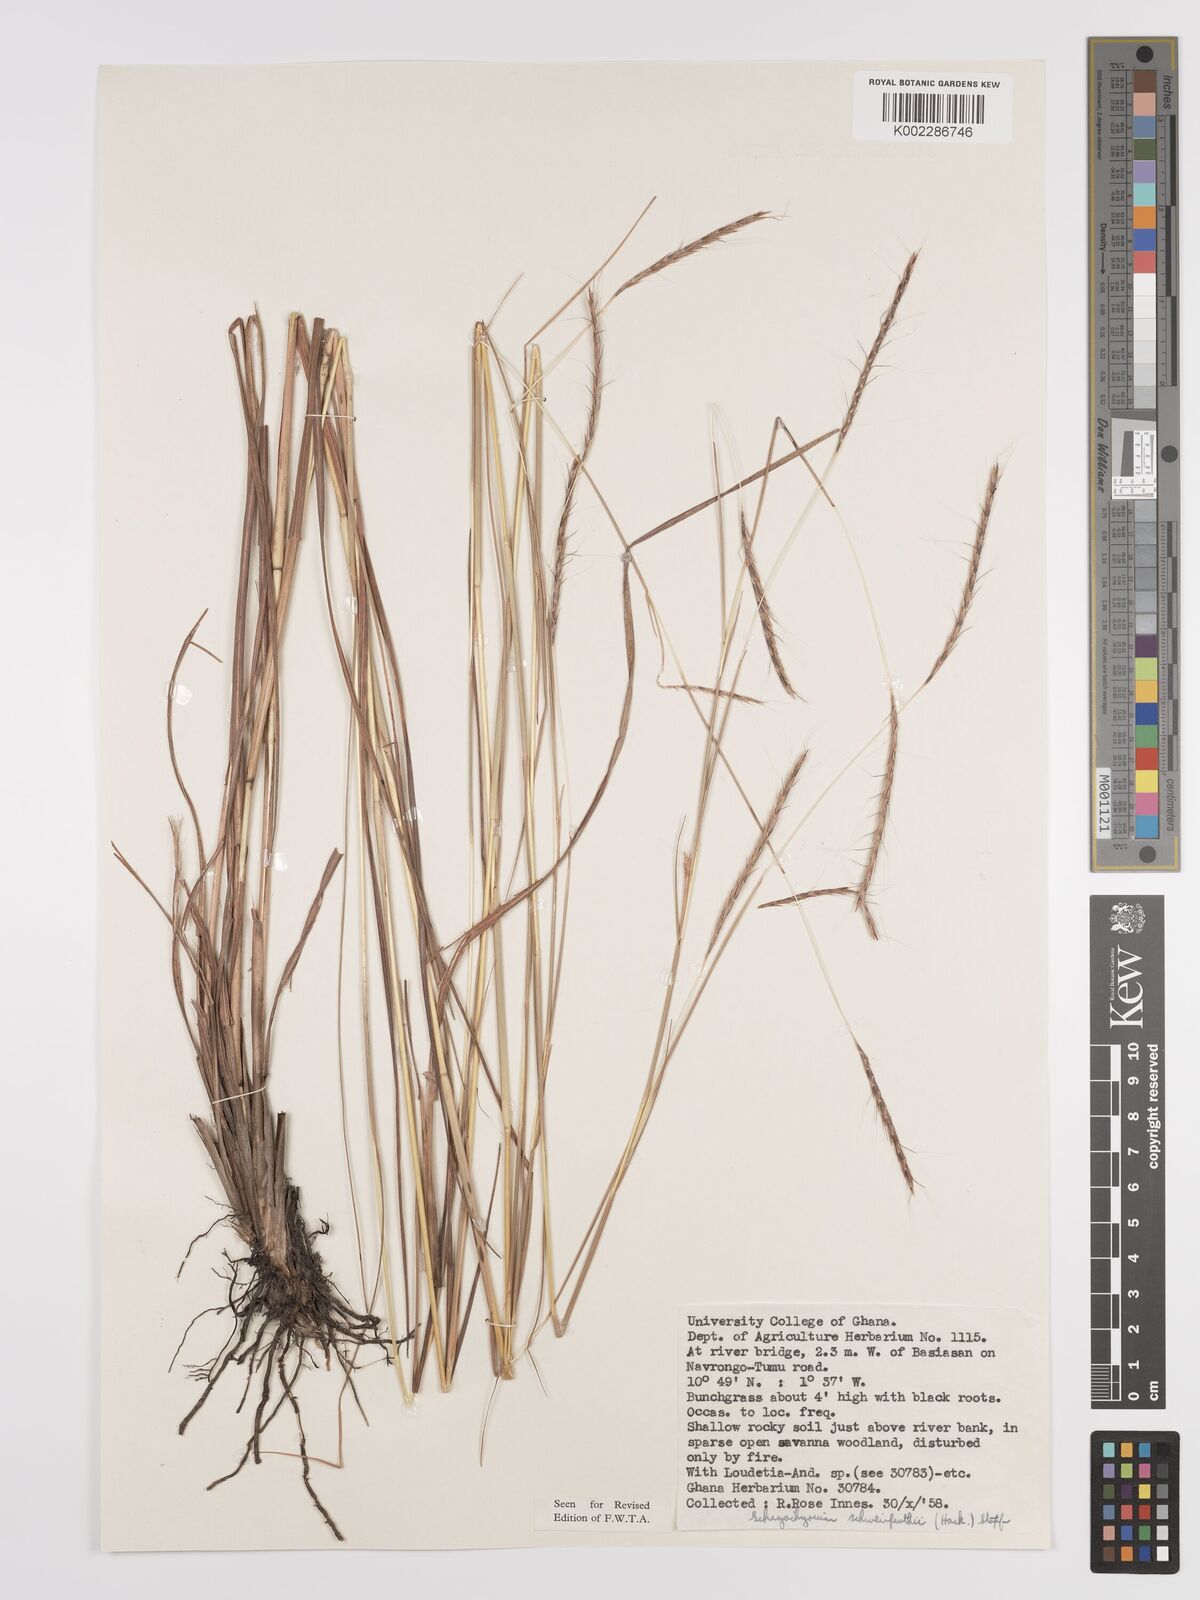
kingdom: Plantae
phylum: Tracheophyta
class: Liliopsida
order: Poales
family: Poaceae
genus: Andropogon
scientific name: Andropogon schweinfurthii
